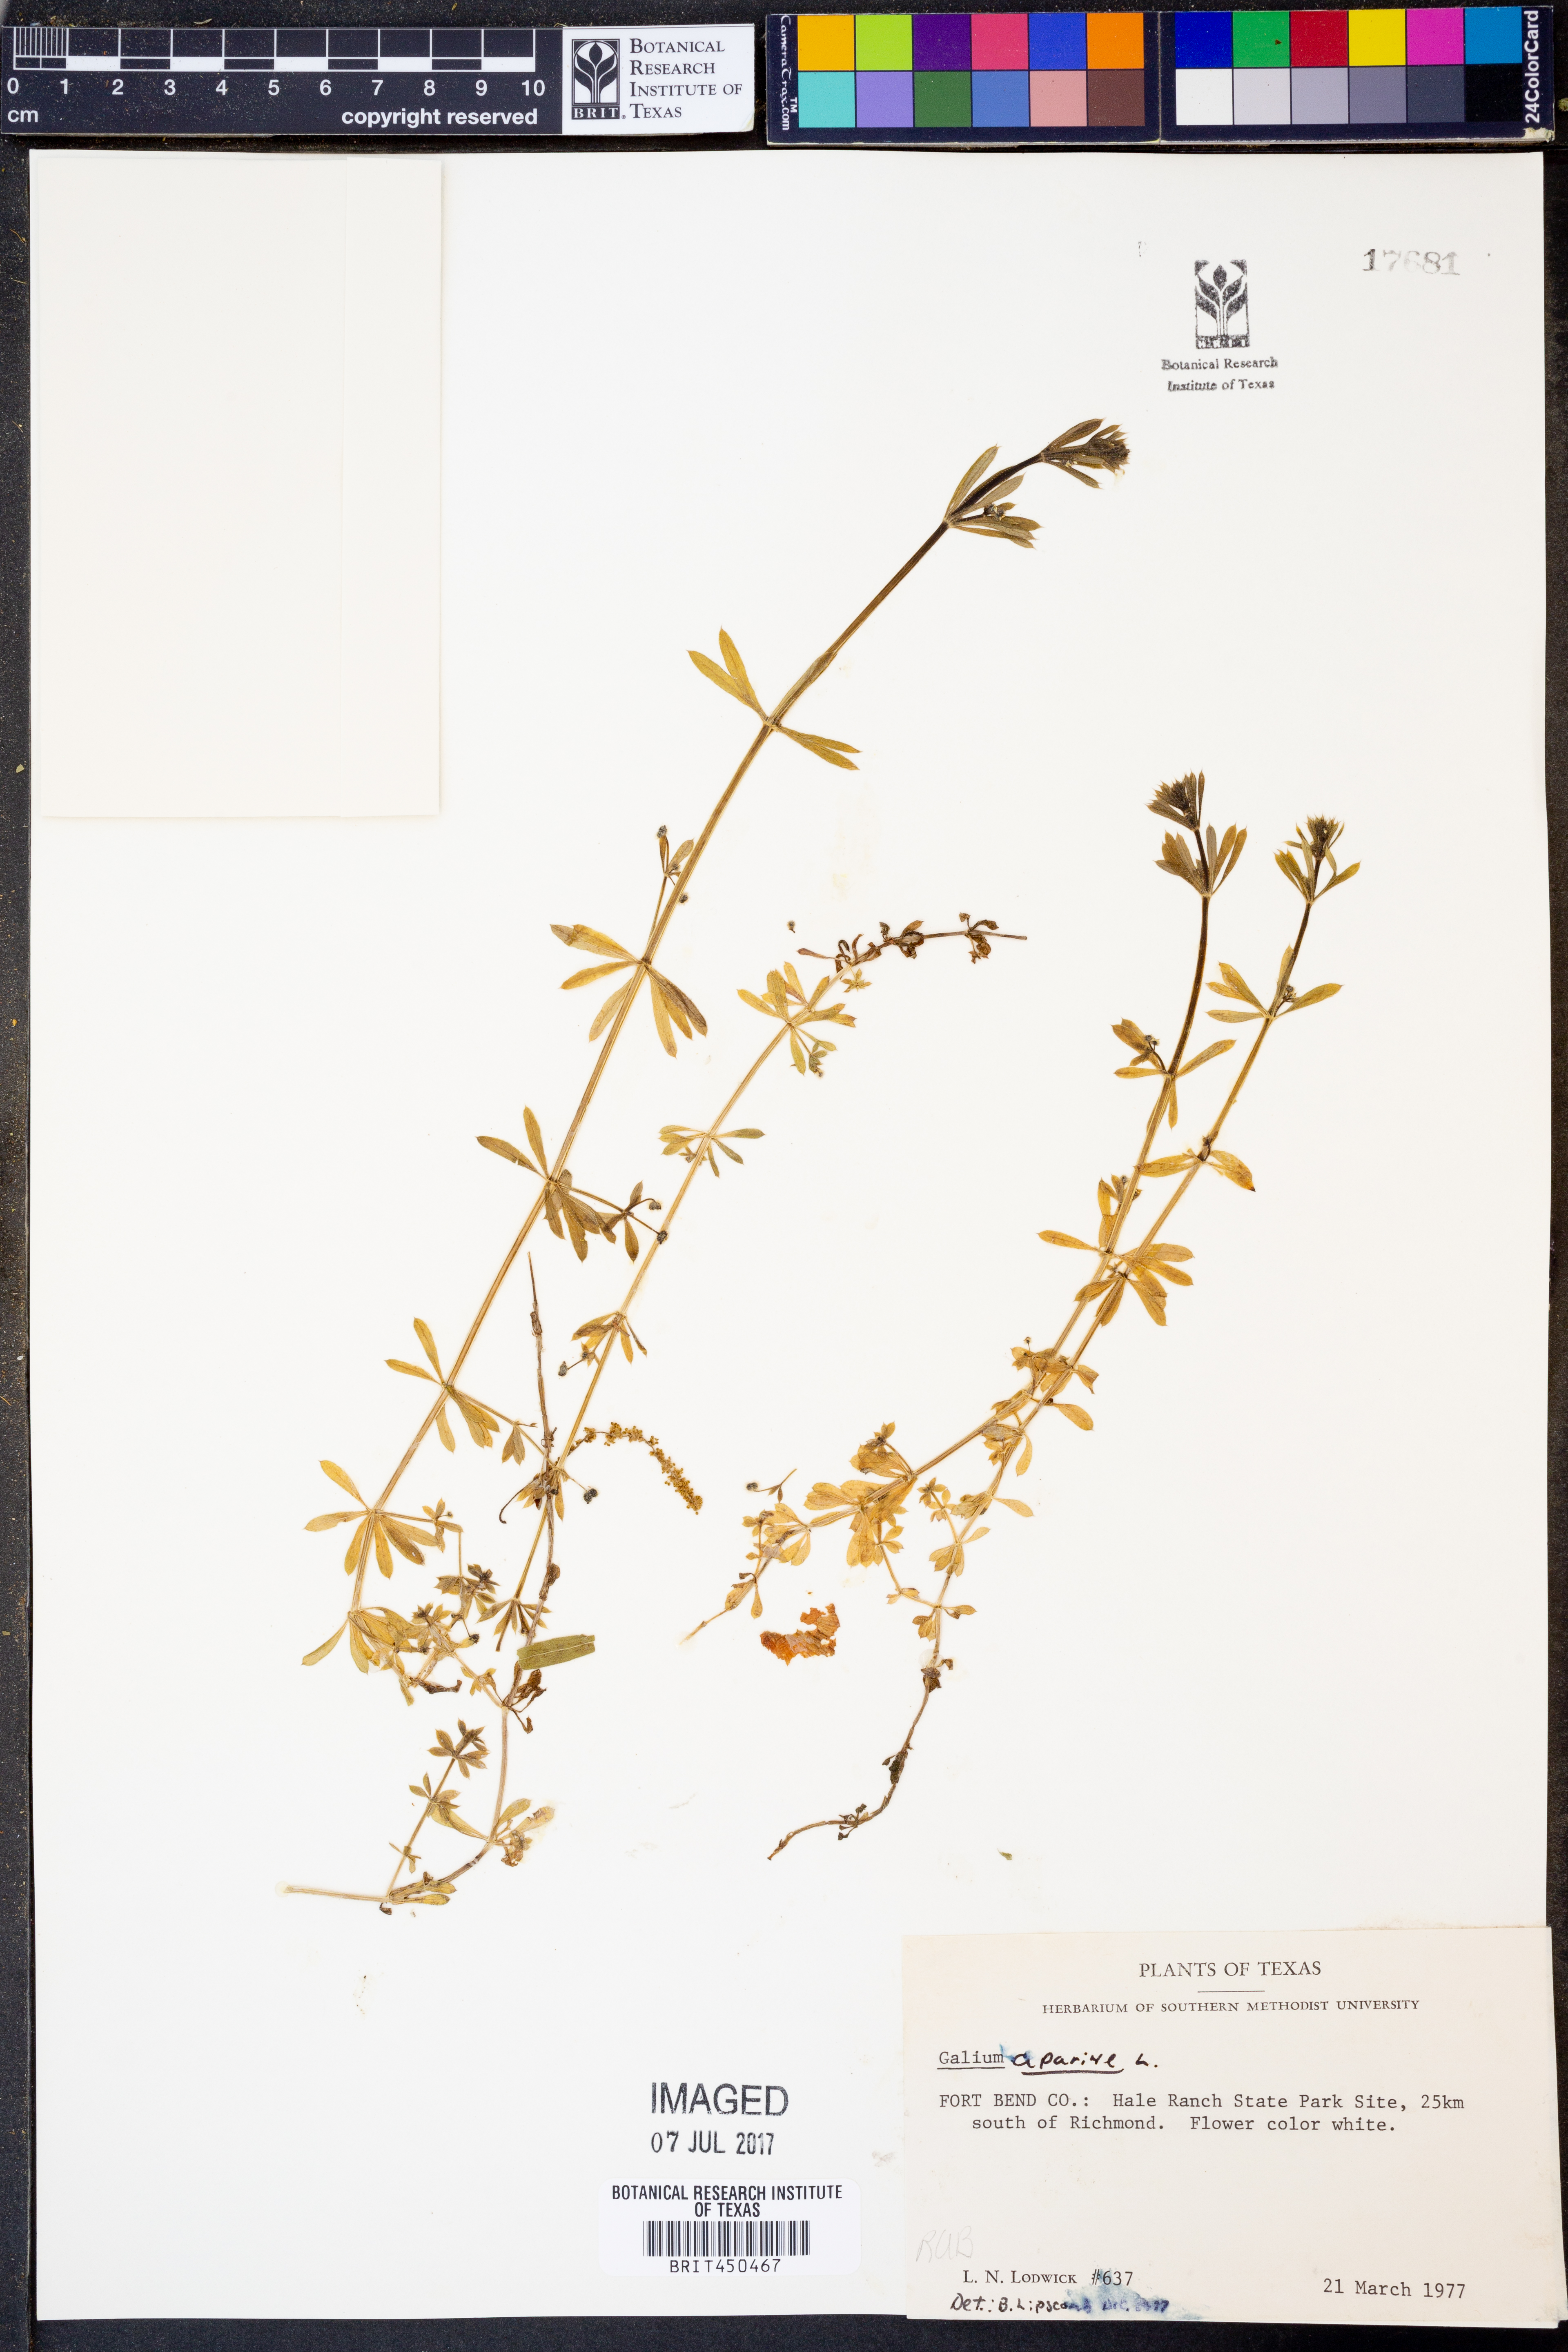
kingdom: Plantae
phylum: Tracheophyta
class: Magnoliopsida
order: Gentianales
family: Rubiaceae
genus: Galium
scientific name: Galium aparine
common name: Cleavers
